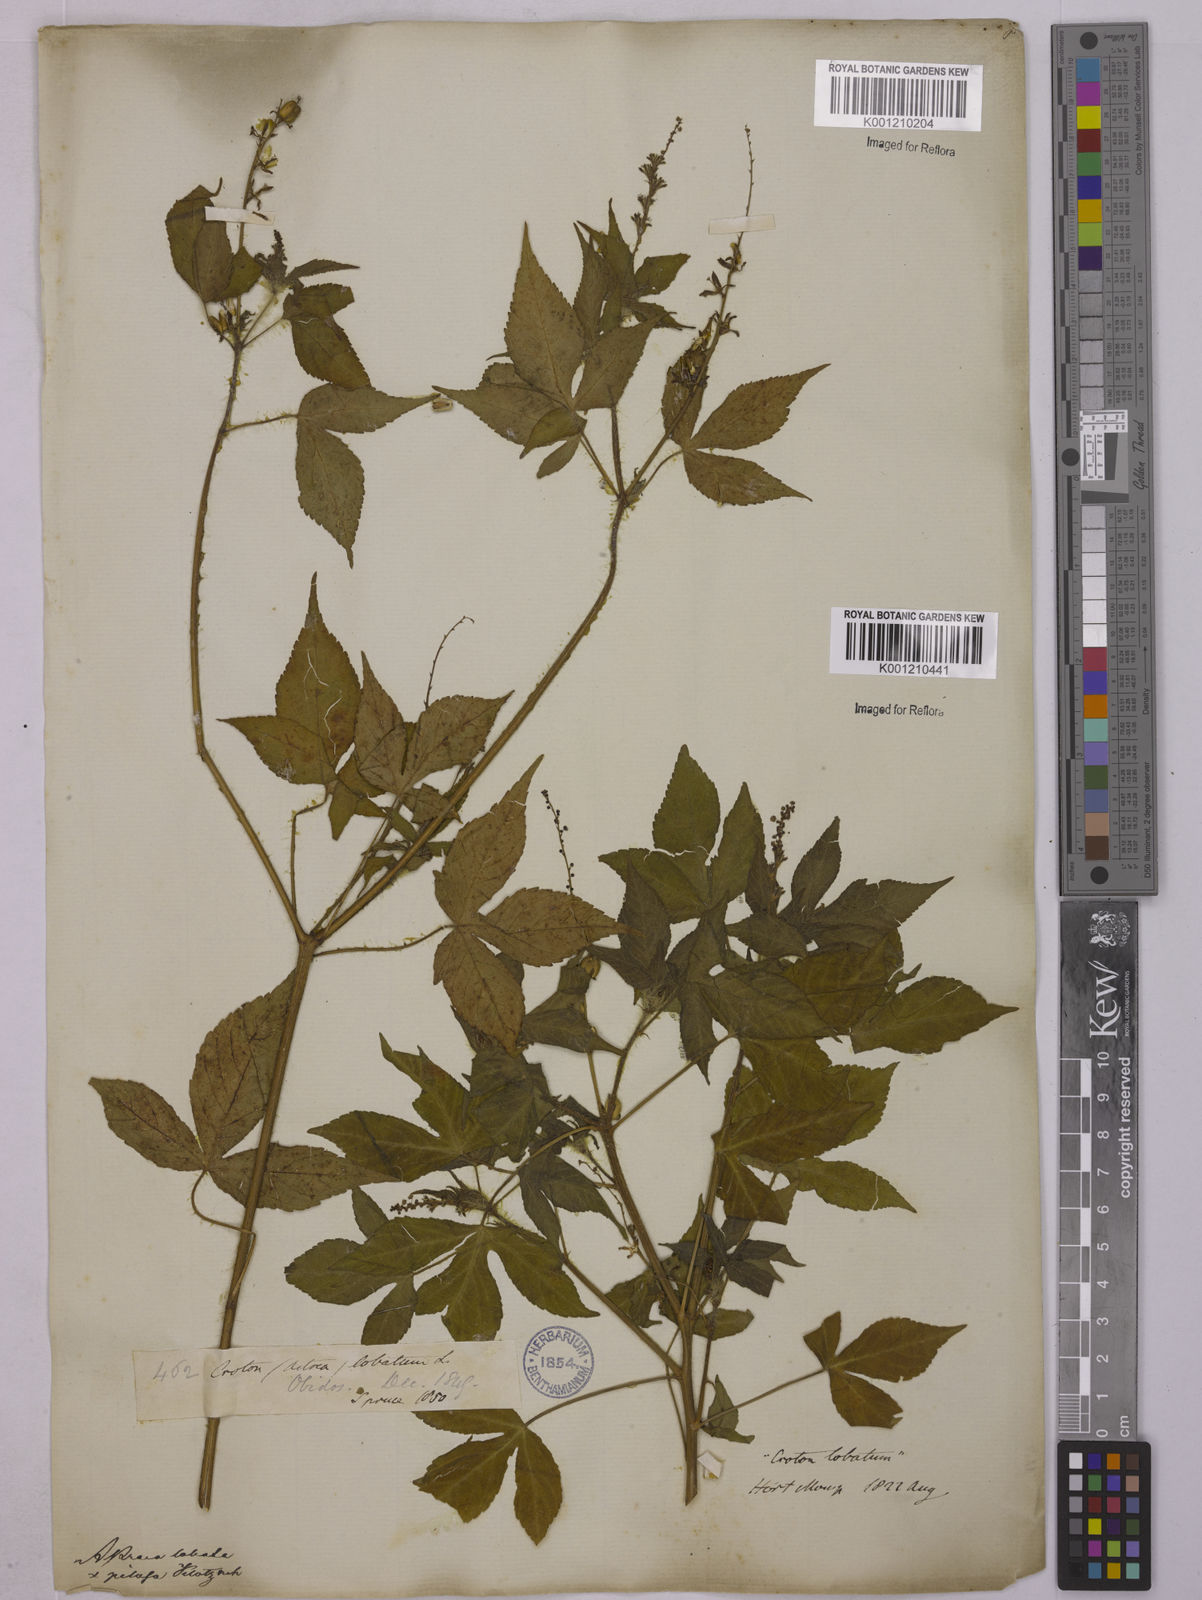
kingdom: Plantae
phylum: Tracheophyta
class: Magnoliopsida
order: Malpighiales
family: Euphorbiaceae
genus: Astraea
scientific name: Astraea lobata
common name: Lobed croton
